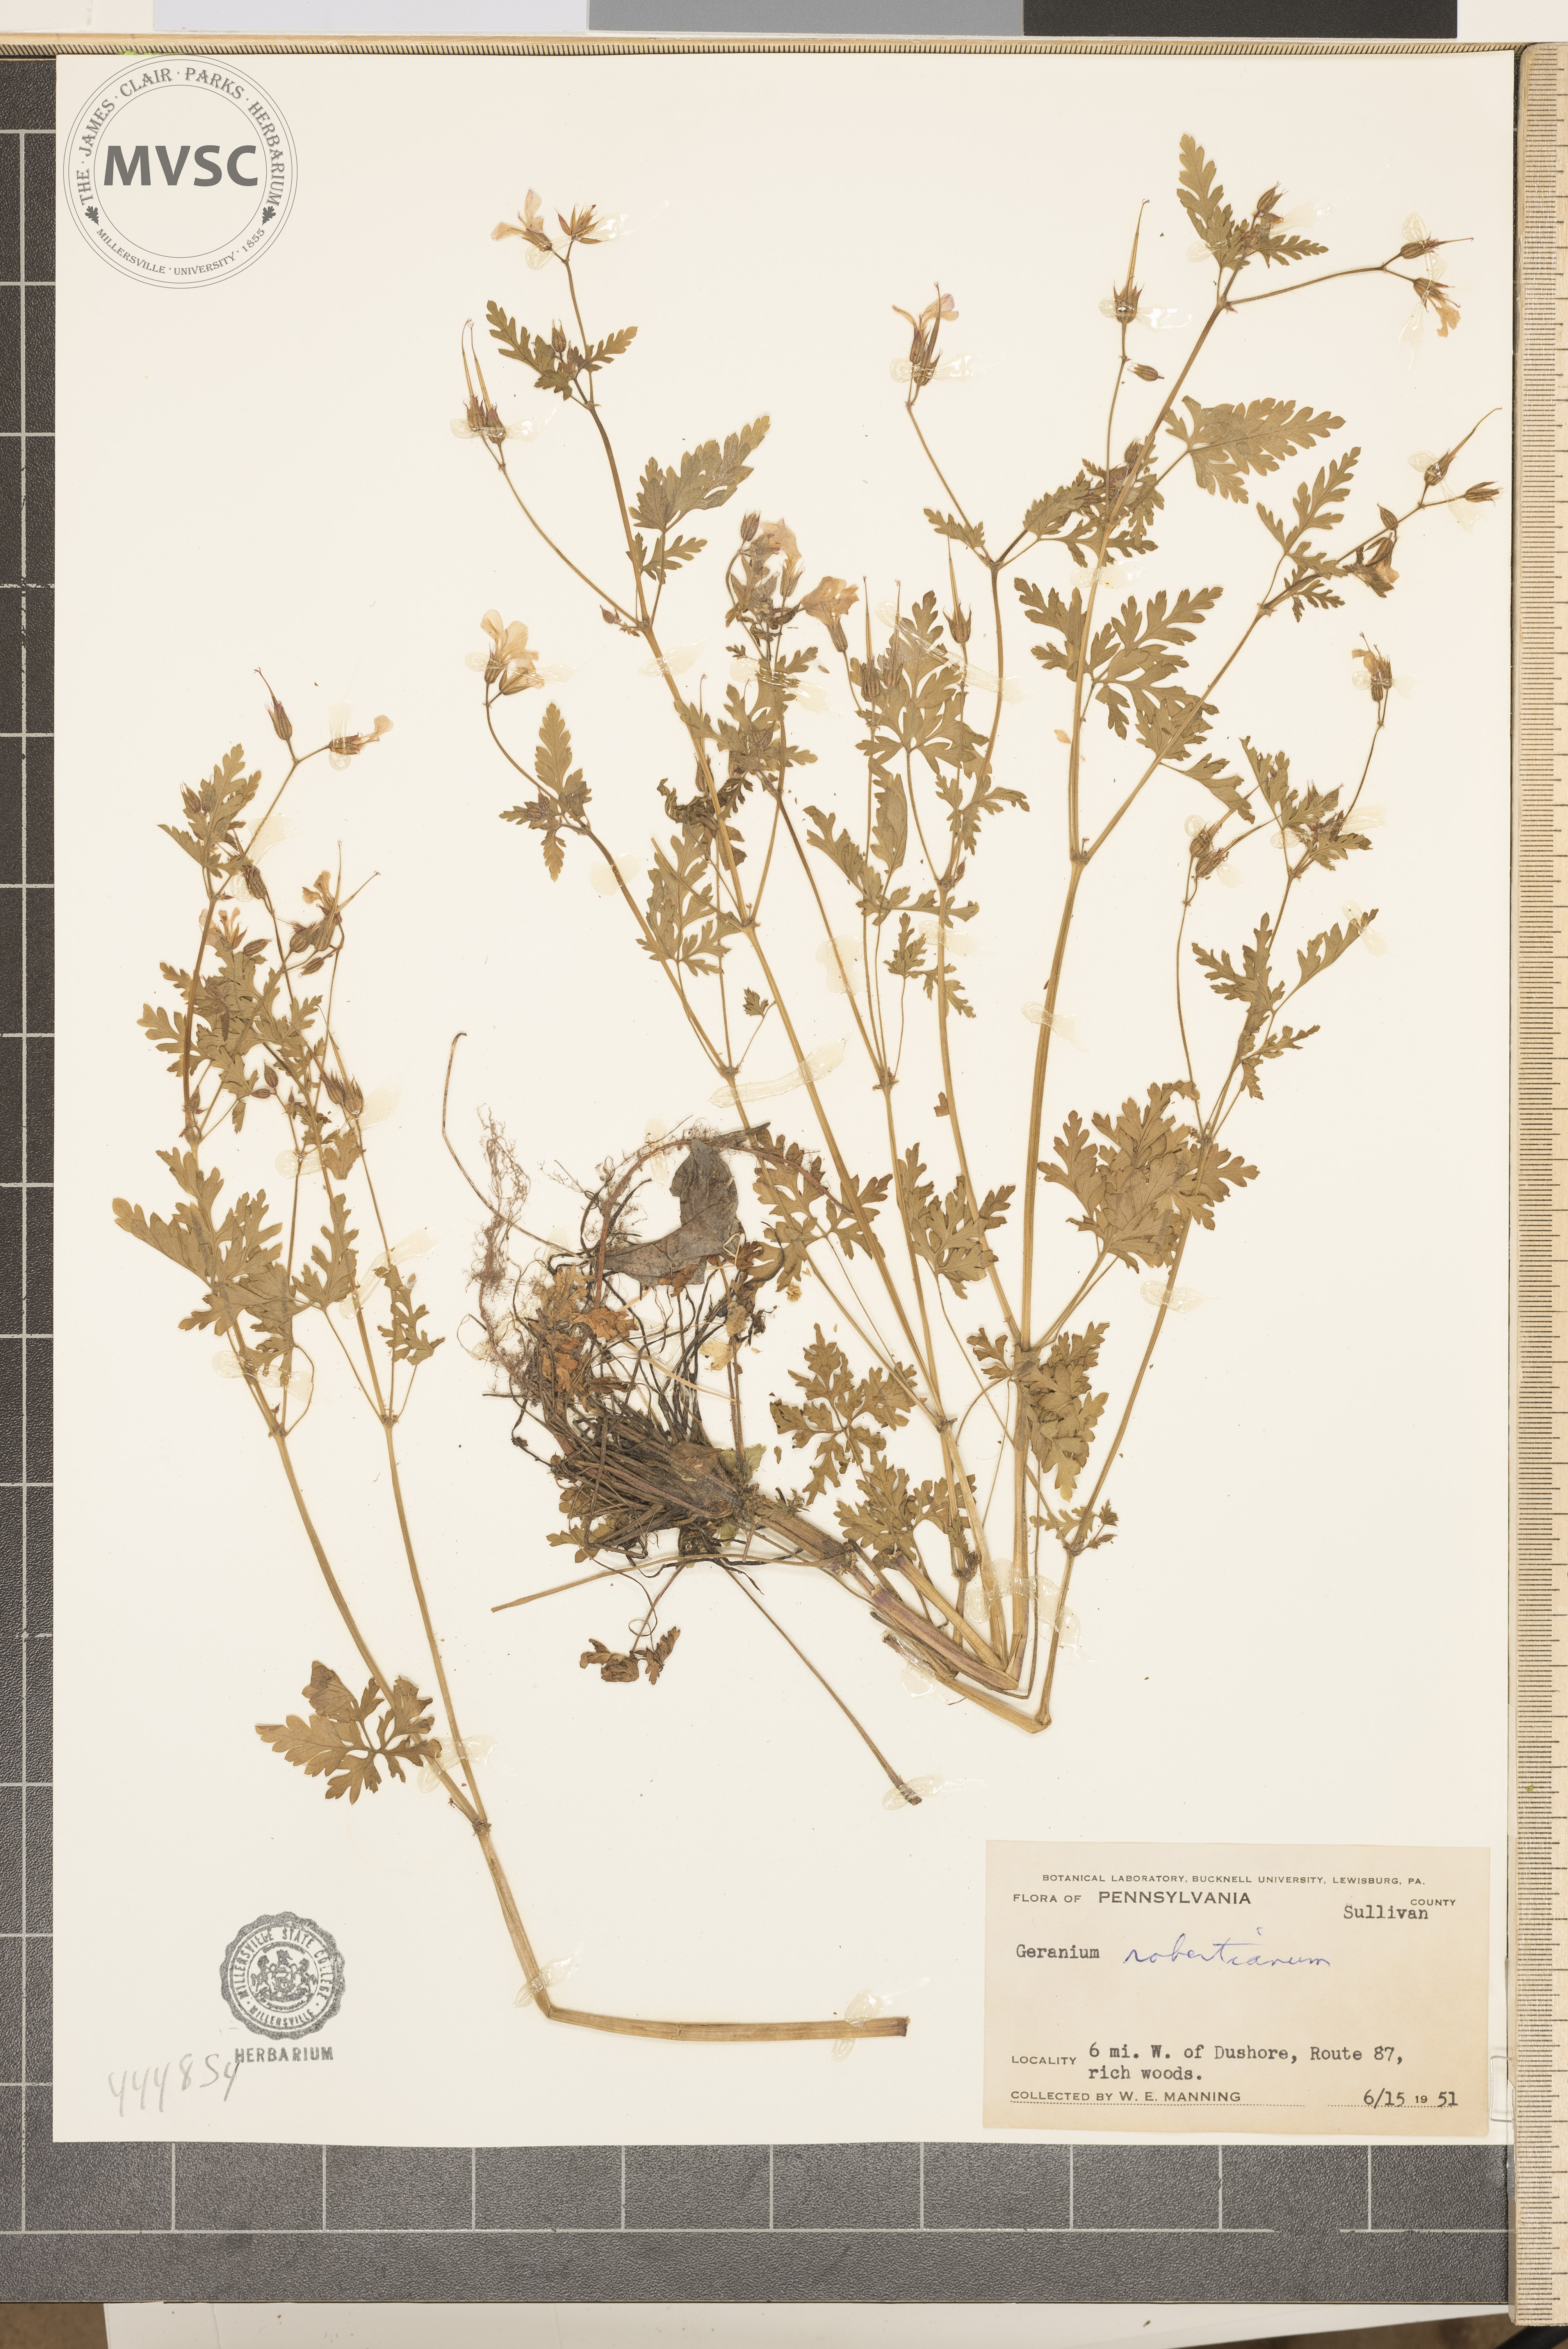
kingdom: Plantae
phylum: Tracheophyta
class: Magnoliopsida
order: Geraniales
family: Geraniaceae
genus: Geranium
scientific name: Geranium robertianum
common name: Herb-robert
